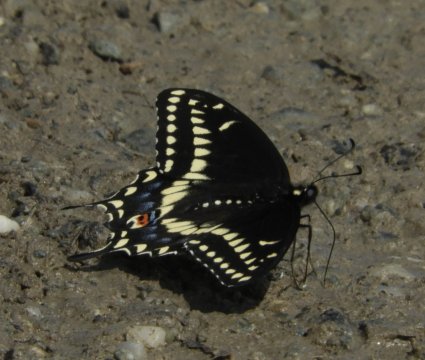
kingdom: Animalia
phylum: Arthropoda
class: Insecta
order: Lepidoptera
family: Papilionidae
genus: Papilio
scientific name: Papilio polyxenes
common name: Black Swallowtail
